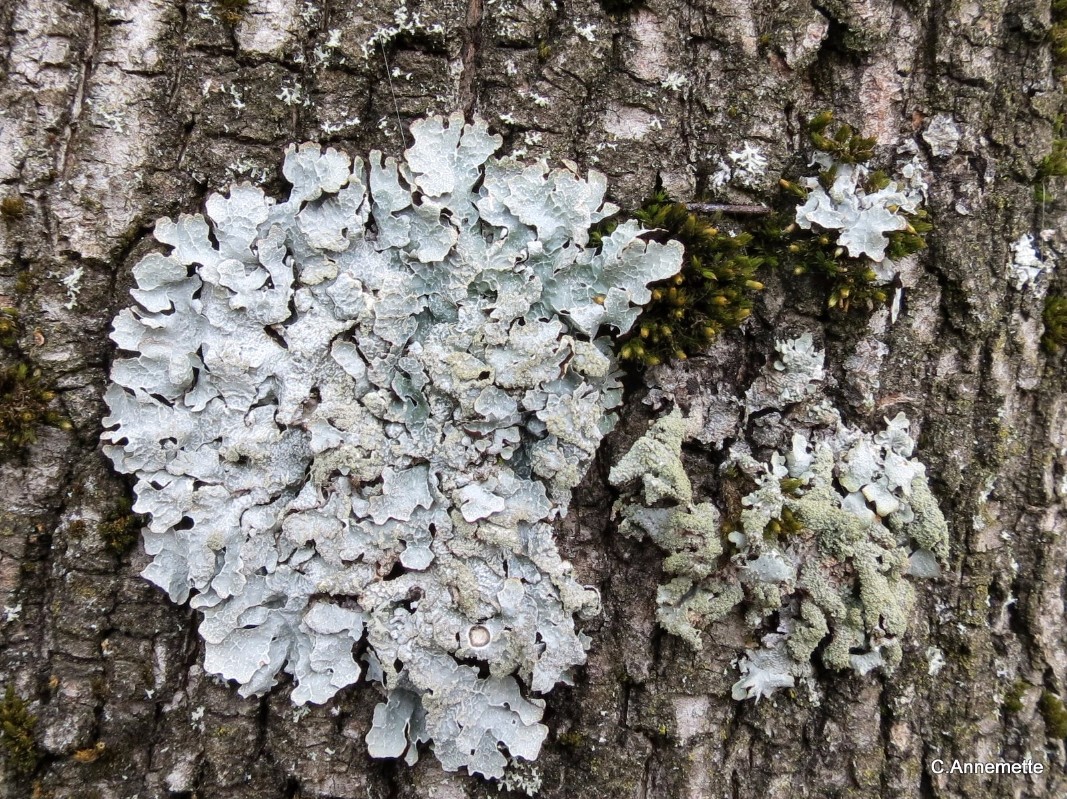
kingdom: Fungi
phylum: Ascomycota
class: Lecanoromycetes
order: Lecanorales
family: Parmeliaceae
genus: Parmelia
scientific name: Parmelia submontana
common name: langlobet skållav
